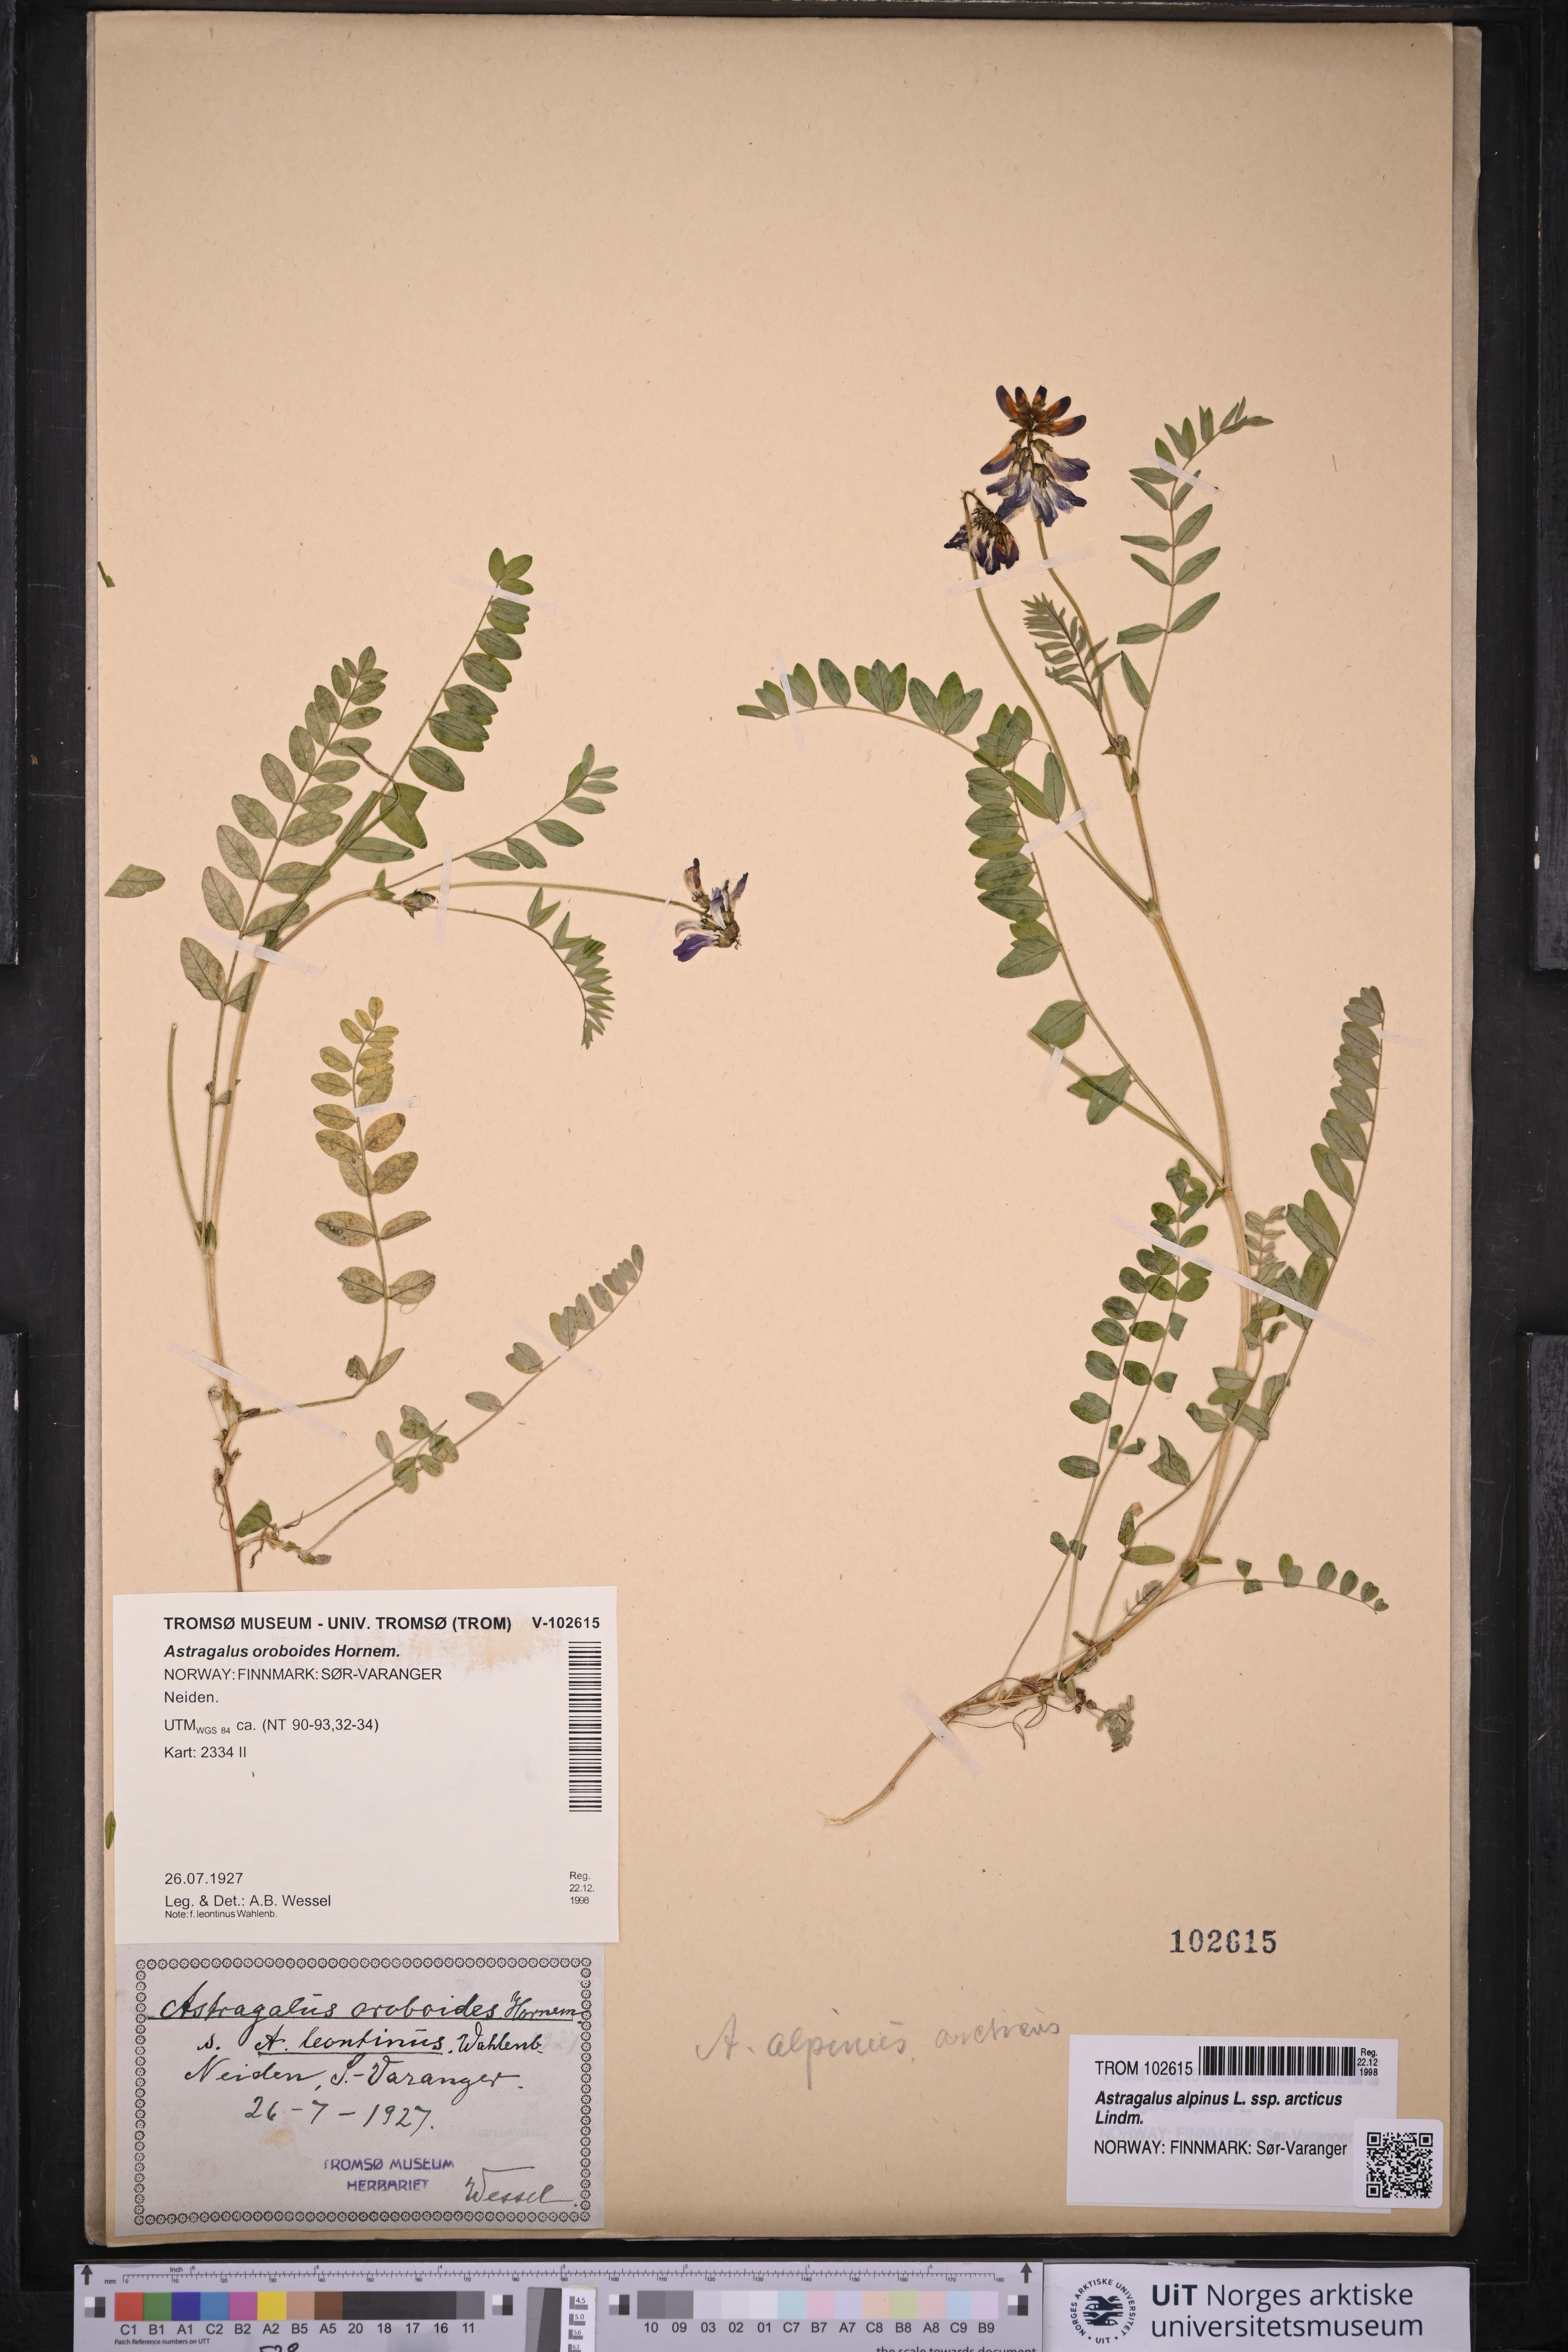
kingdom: Plantae
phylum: Tracheophyta
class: Magnoliopsida
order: Fabales
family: Fabaceae
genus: Astragalus
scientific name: Astragalus norvegicus
